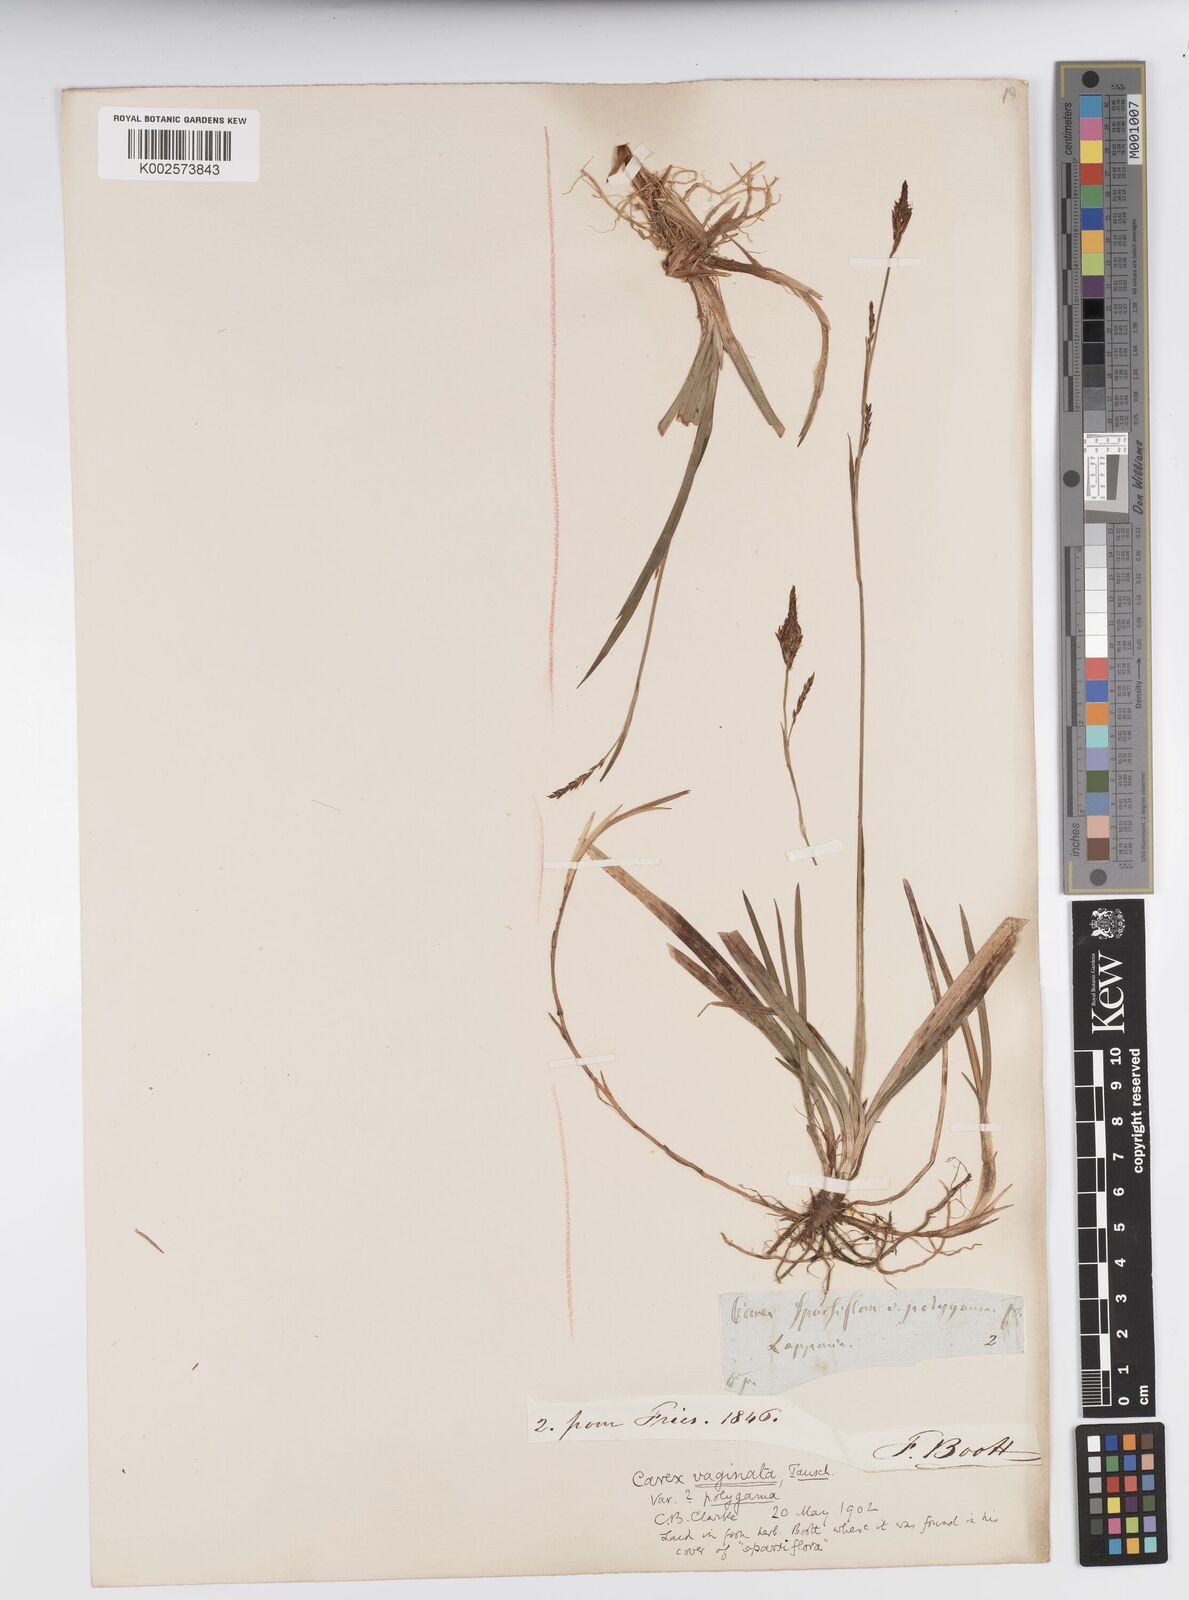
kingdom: Plantae
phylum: Tracheophyta
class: Liliopsida
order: Poales
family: Cyperaceae
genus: Carex
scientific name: Carex vaginata
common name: Sheathed sedge
